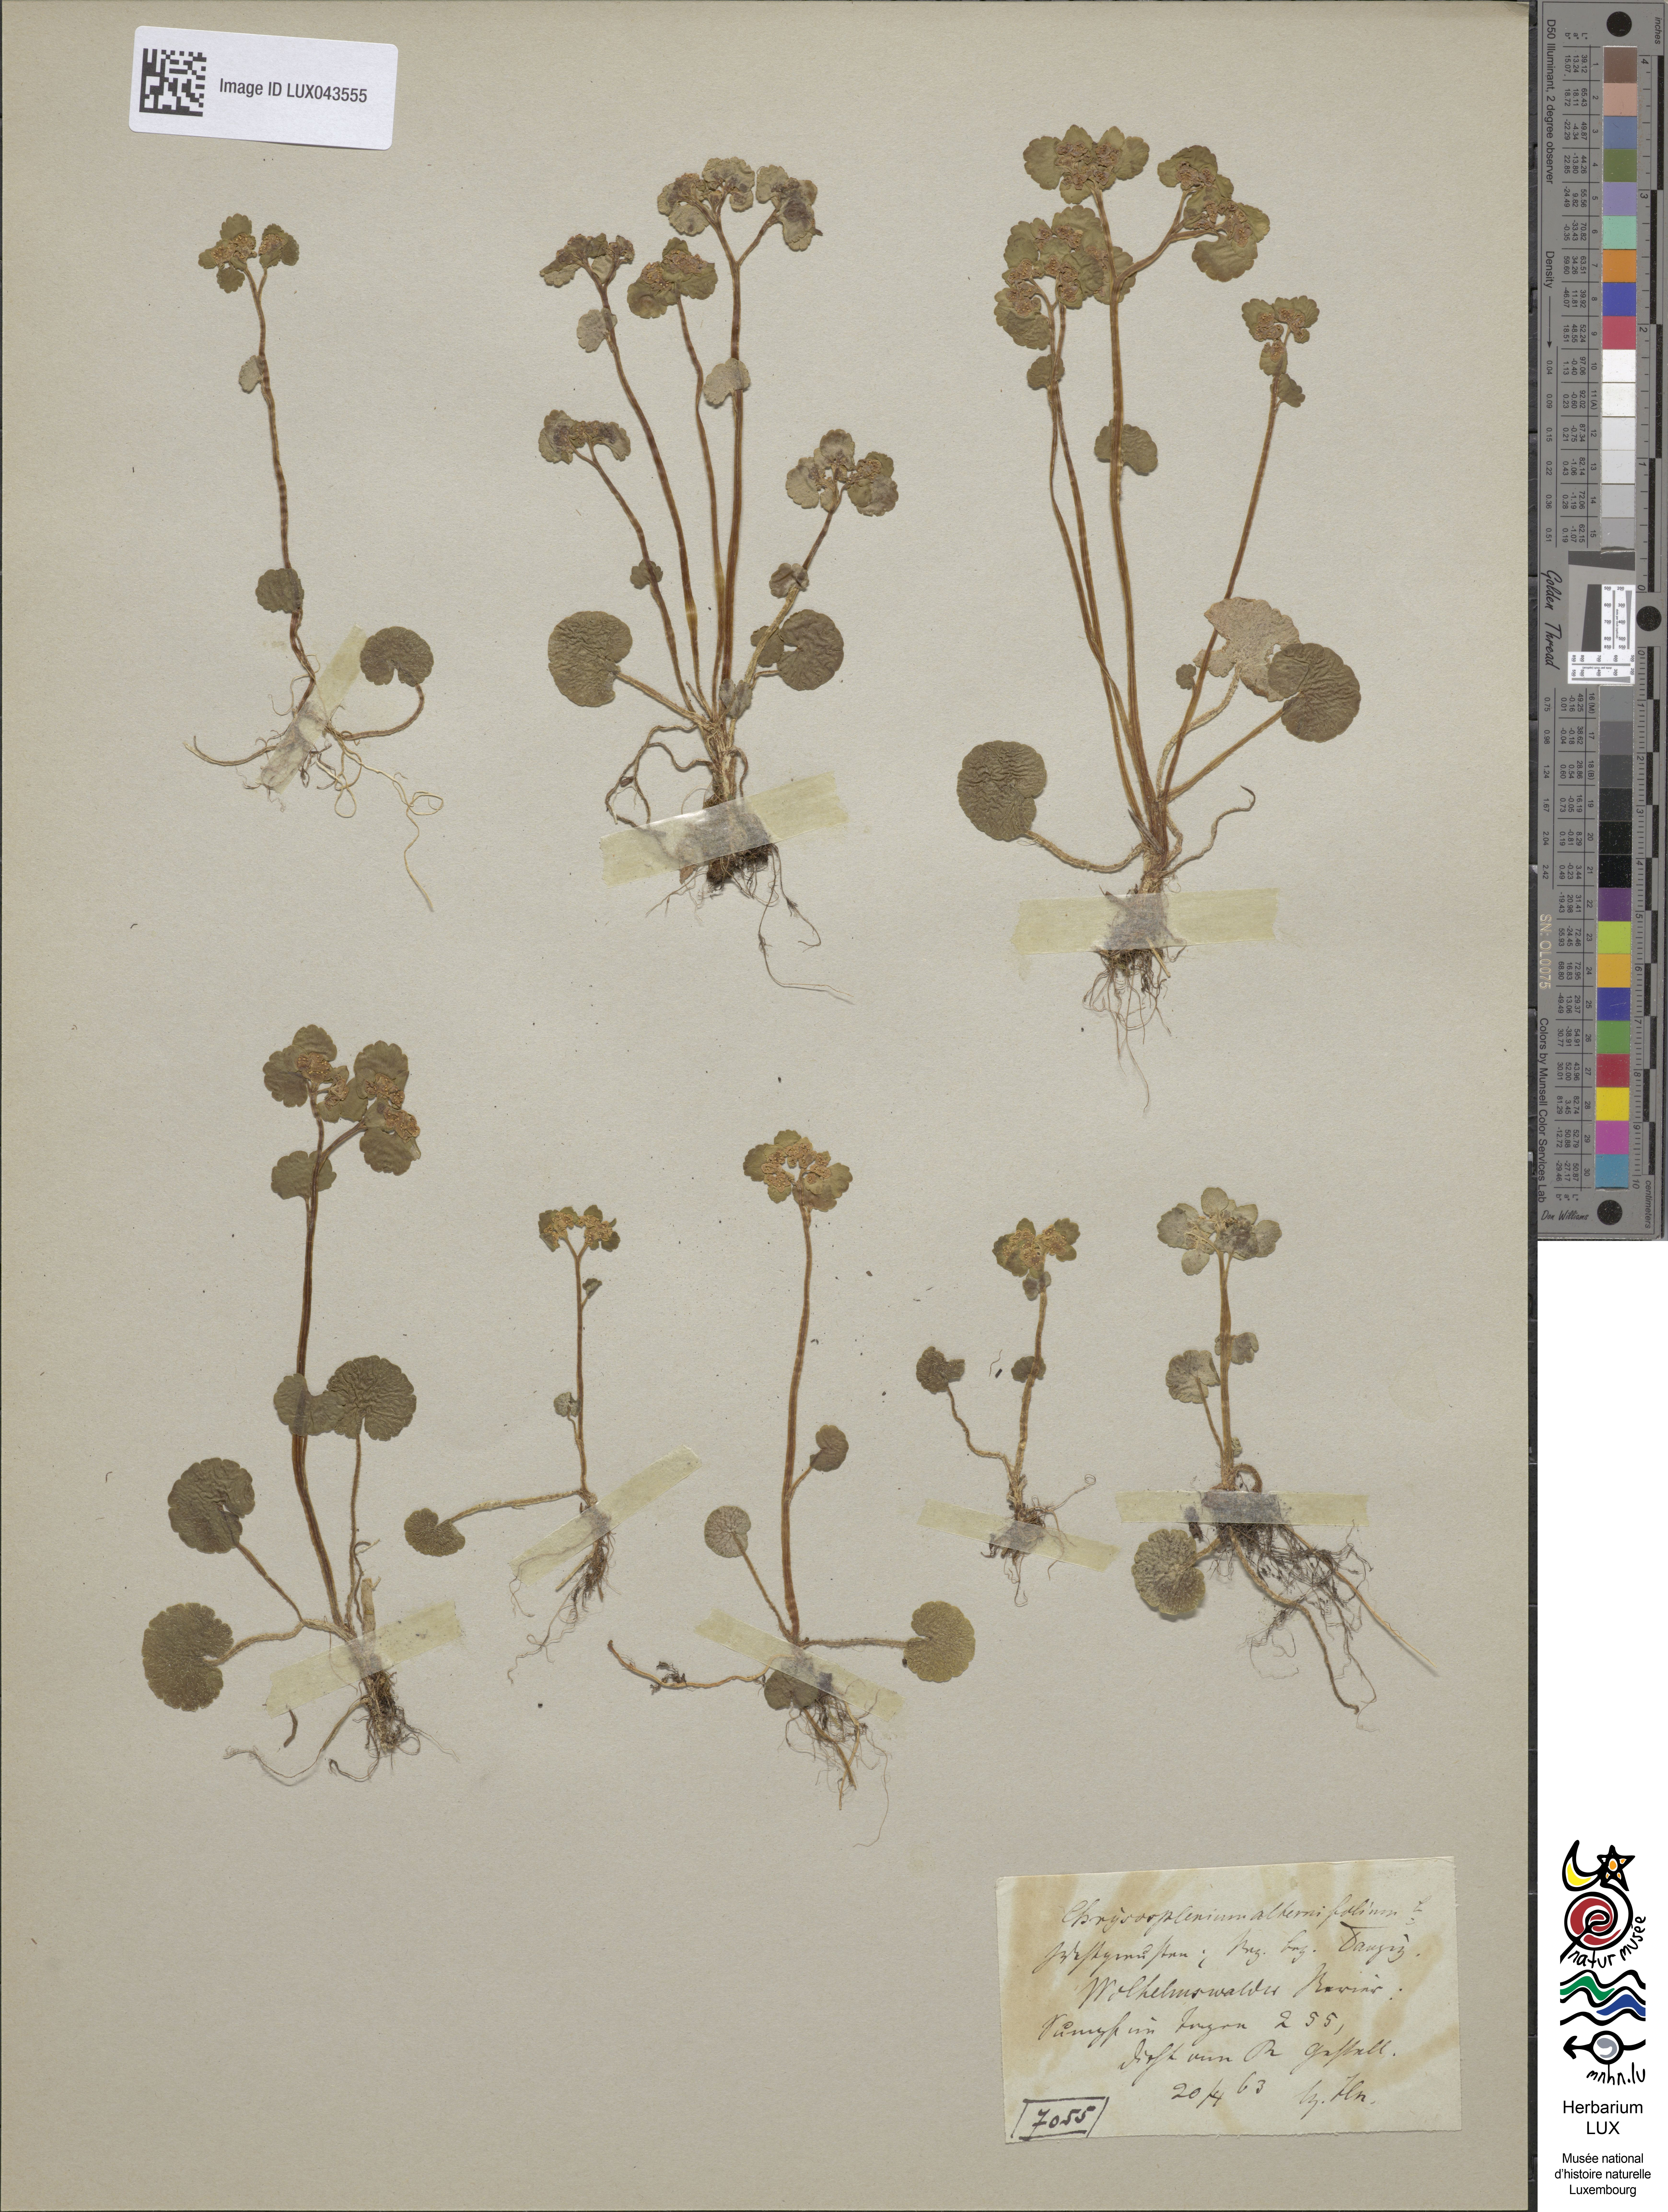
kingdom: Plantae
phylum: Tracheophyta
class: Magnoliopsida
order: Saxifragales
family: Saxifragaceae
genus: Chrysosplenium
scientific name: Chrysosplenium alternifolium
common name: Alternate-leaved golden-saxifrage
